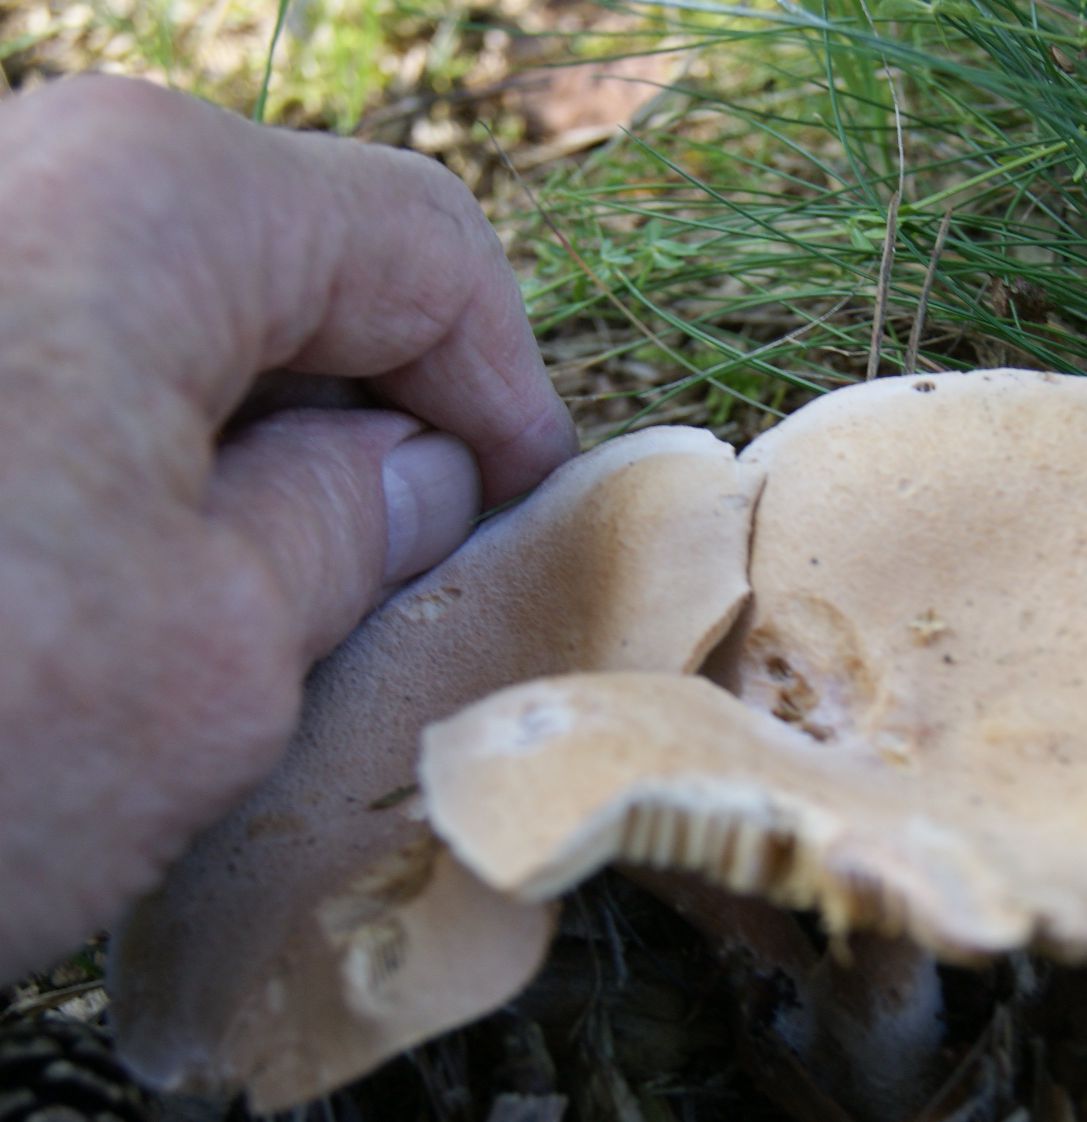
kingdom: Fungi
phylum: Basidiomycota
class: Agaricomycetes
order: Russulales
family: Russulaceae
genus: Lactarius
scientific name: Lactarius helvus
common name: mose-mælkehat
